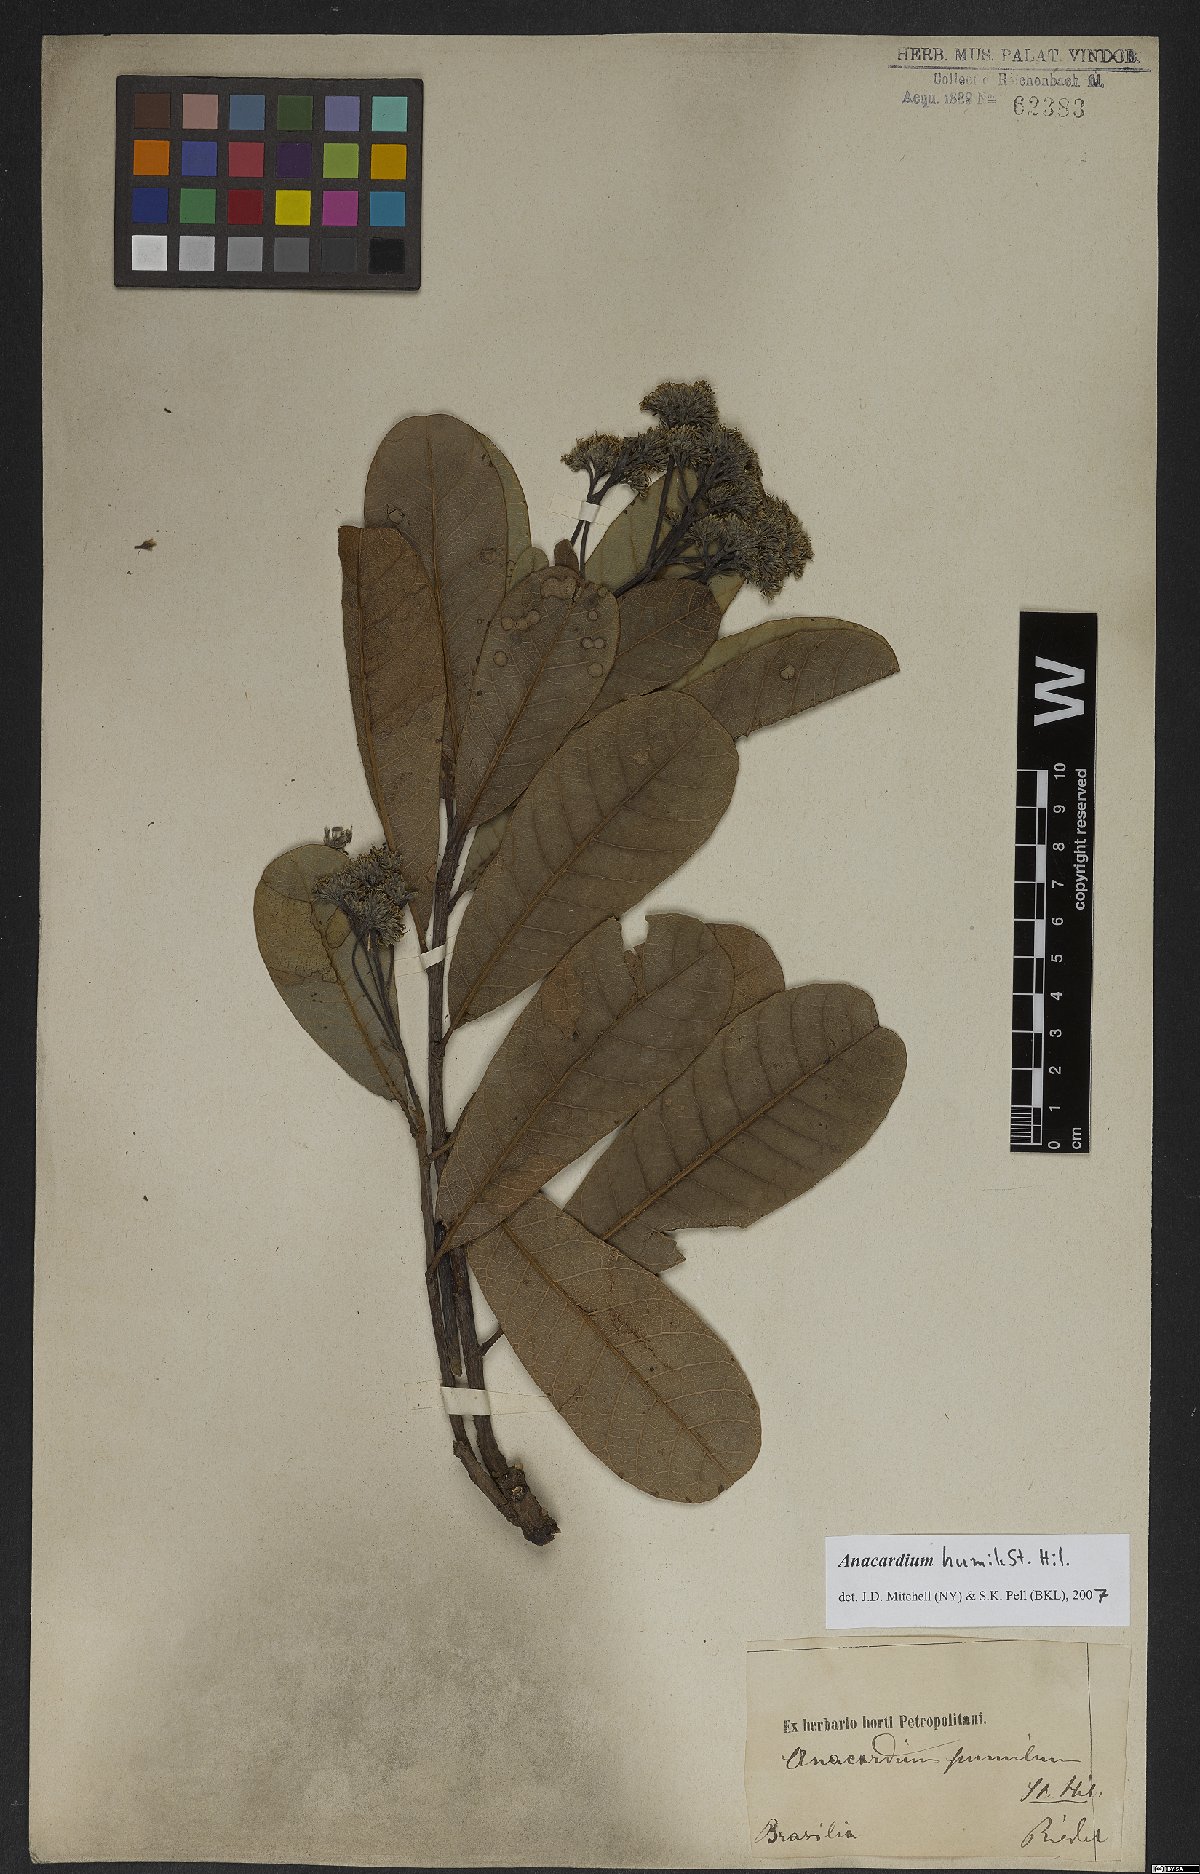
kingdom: Plantae
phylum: Tracheophyta
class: Magnoliopsida
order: Sapindales
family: Anacardiaceae
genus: Anacardium
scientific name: Anacardium humile
